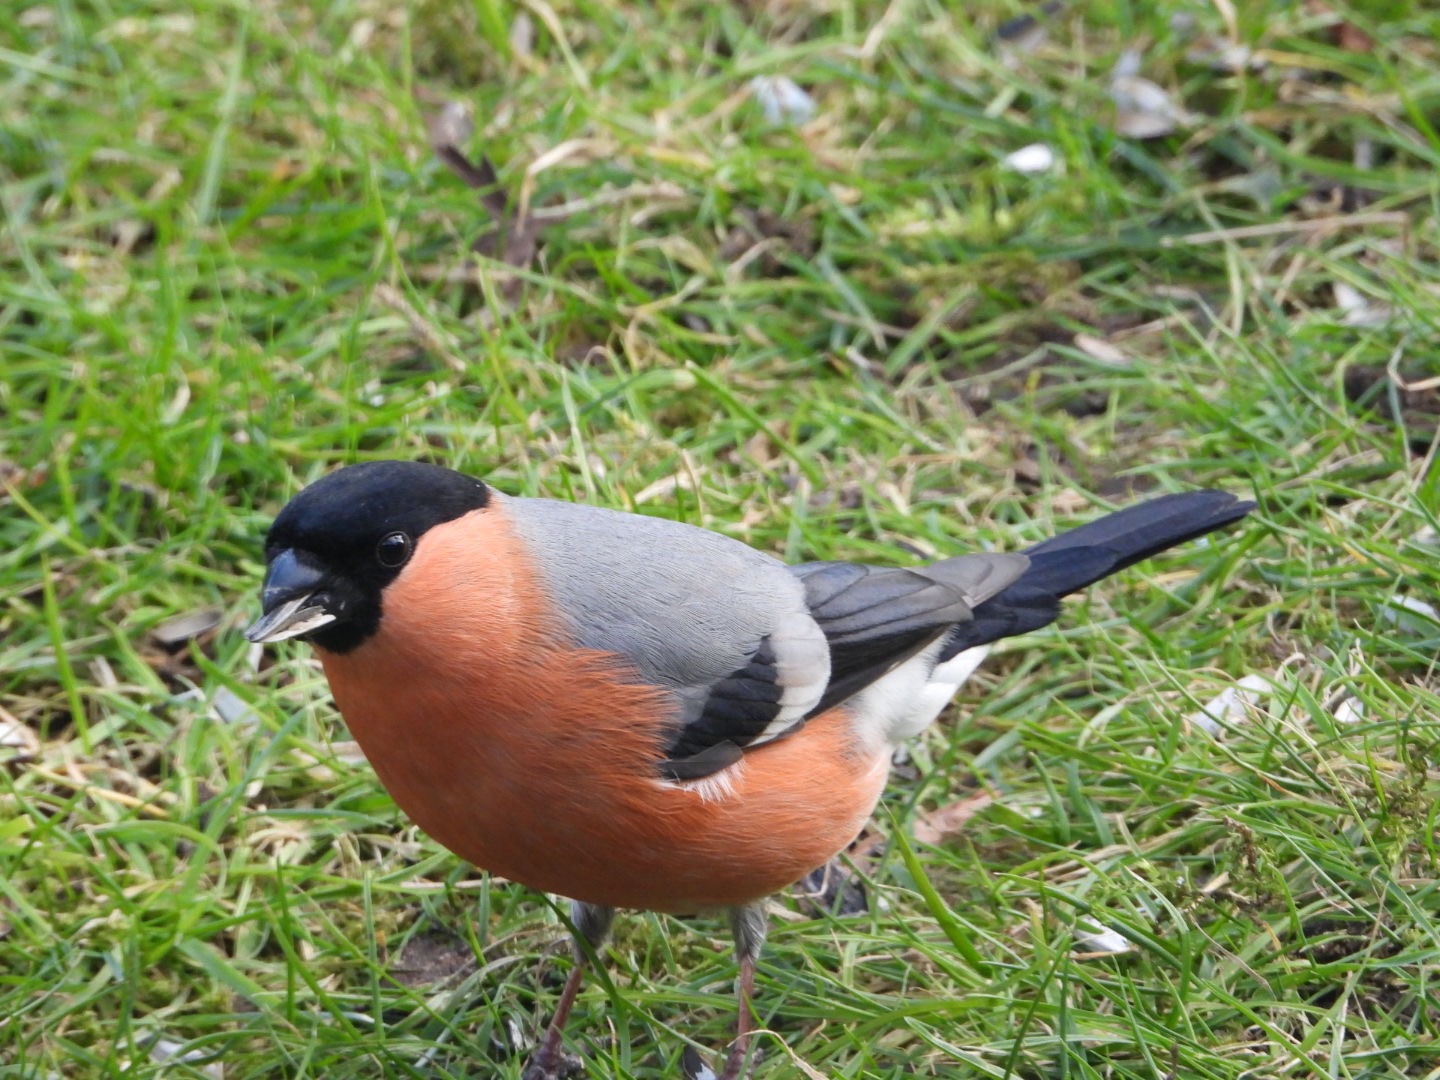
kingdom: Animalia
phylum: Chordata
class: Aves
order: Passeriformes
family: Fringillidae
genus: Pyrrhula
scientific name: Pyrrhula pyrrhula
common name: Dompap
